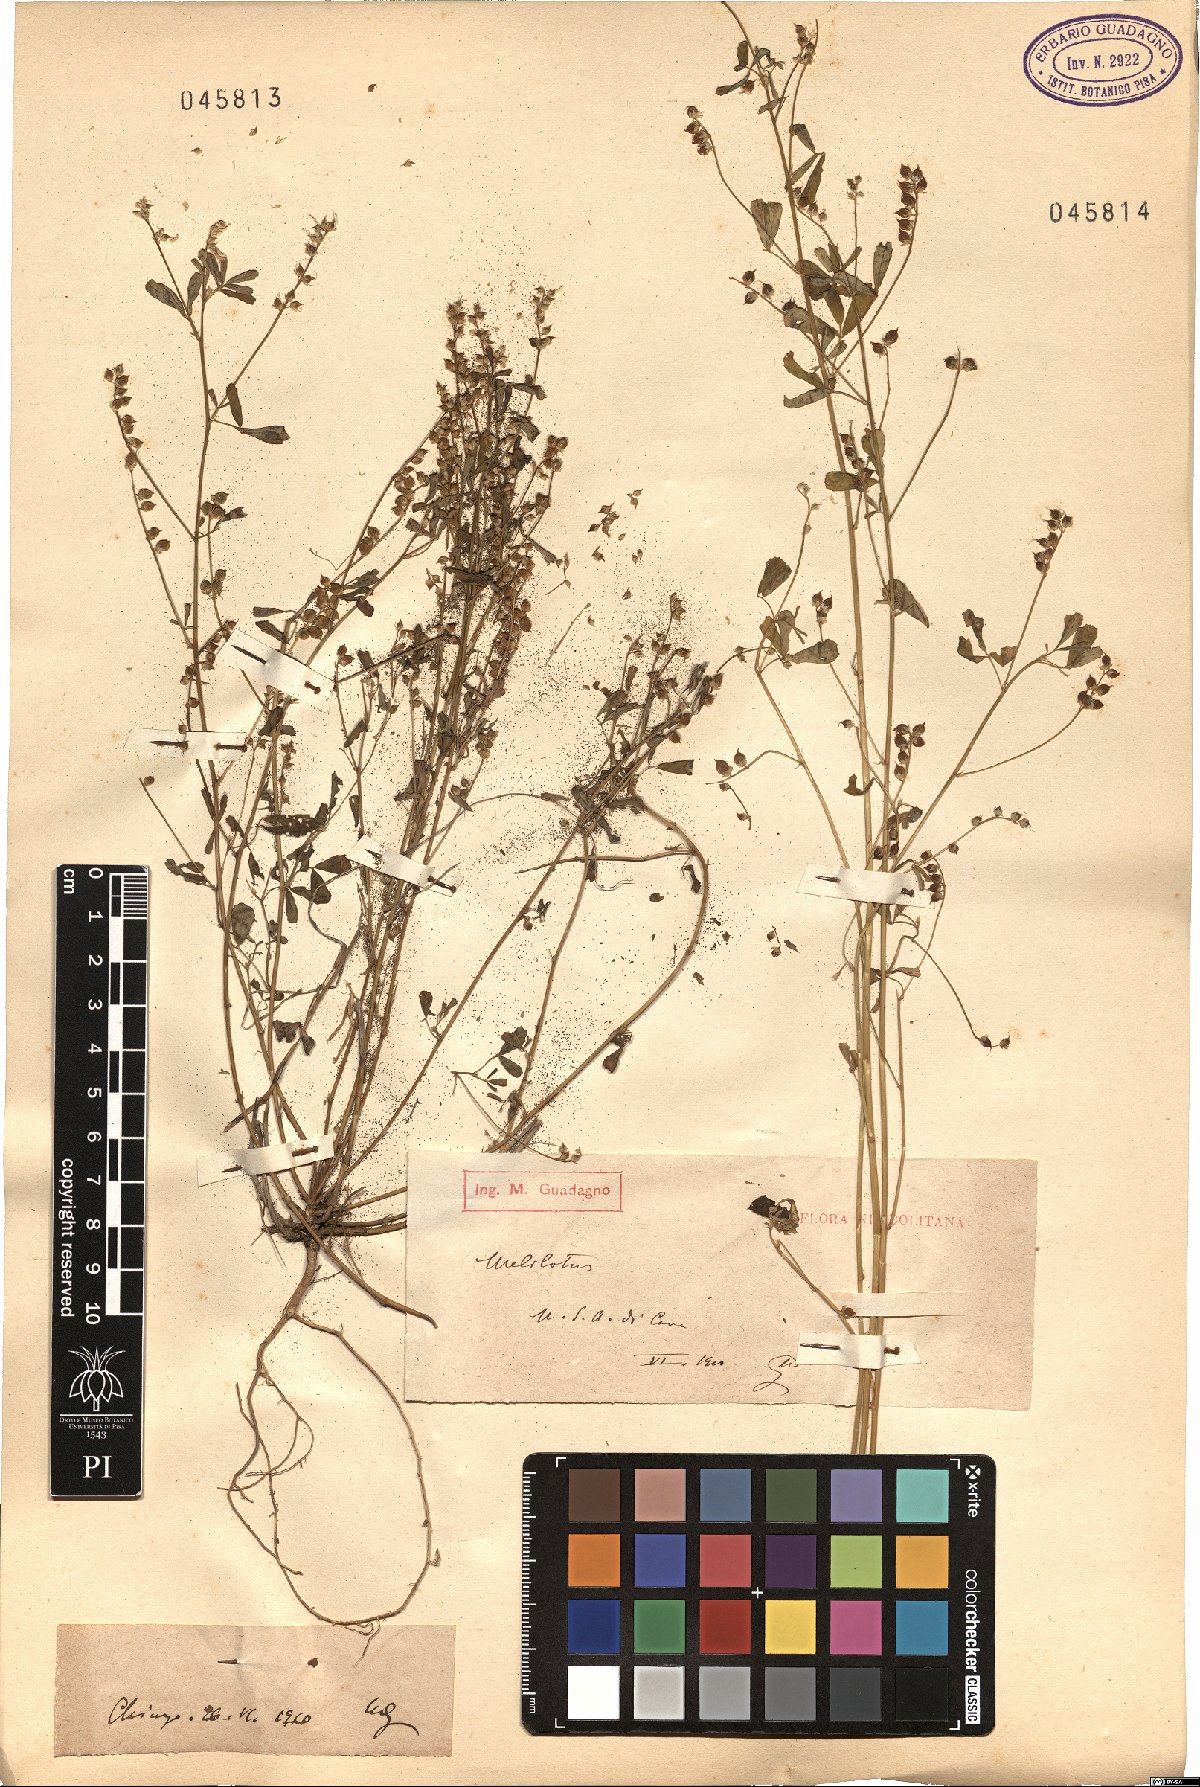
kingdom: Plantae
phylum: Tracheophyta
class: Magnoliopsida
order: Fabales
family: Fabaceae
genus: Melilotus
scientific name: Melilotus
